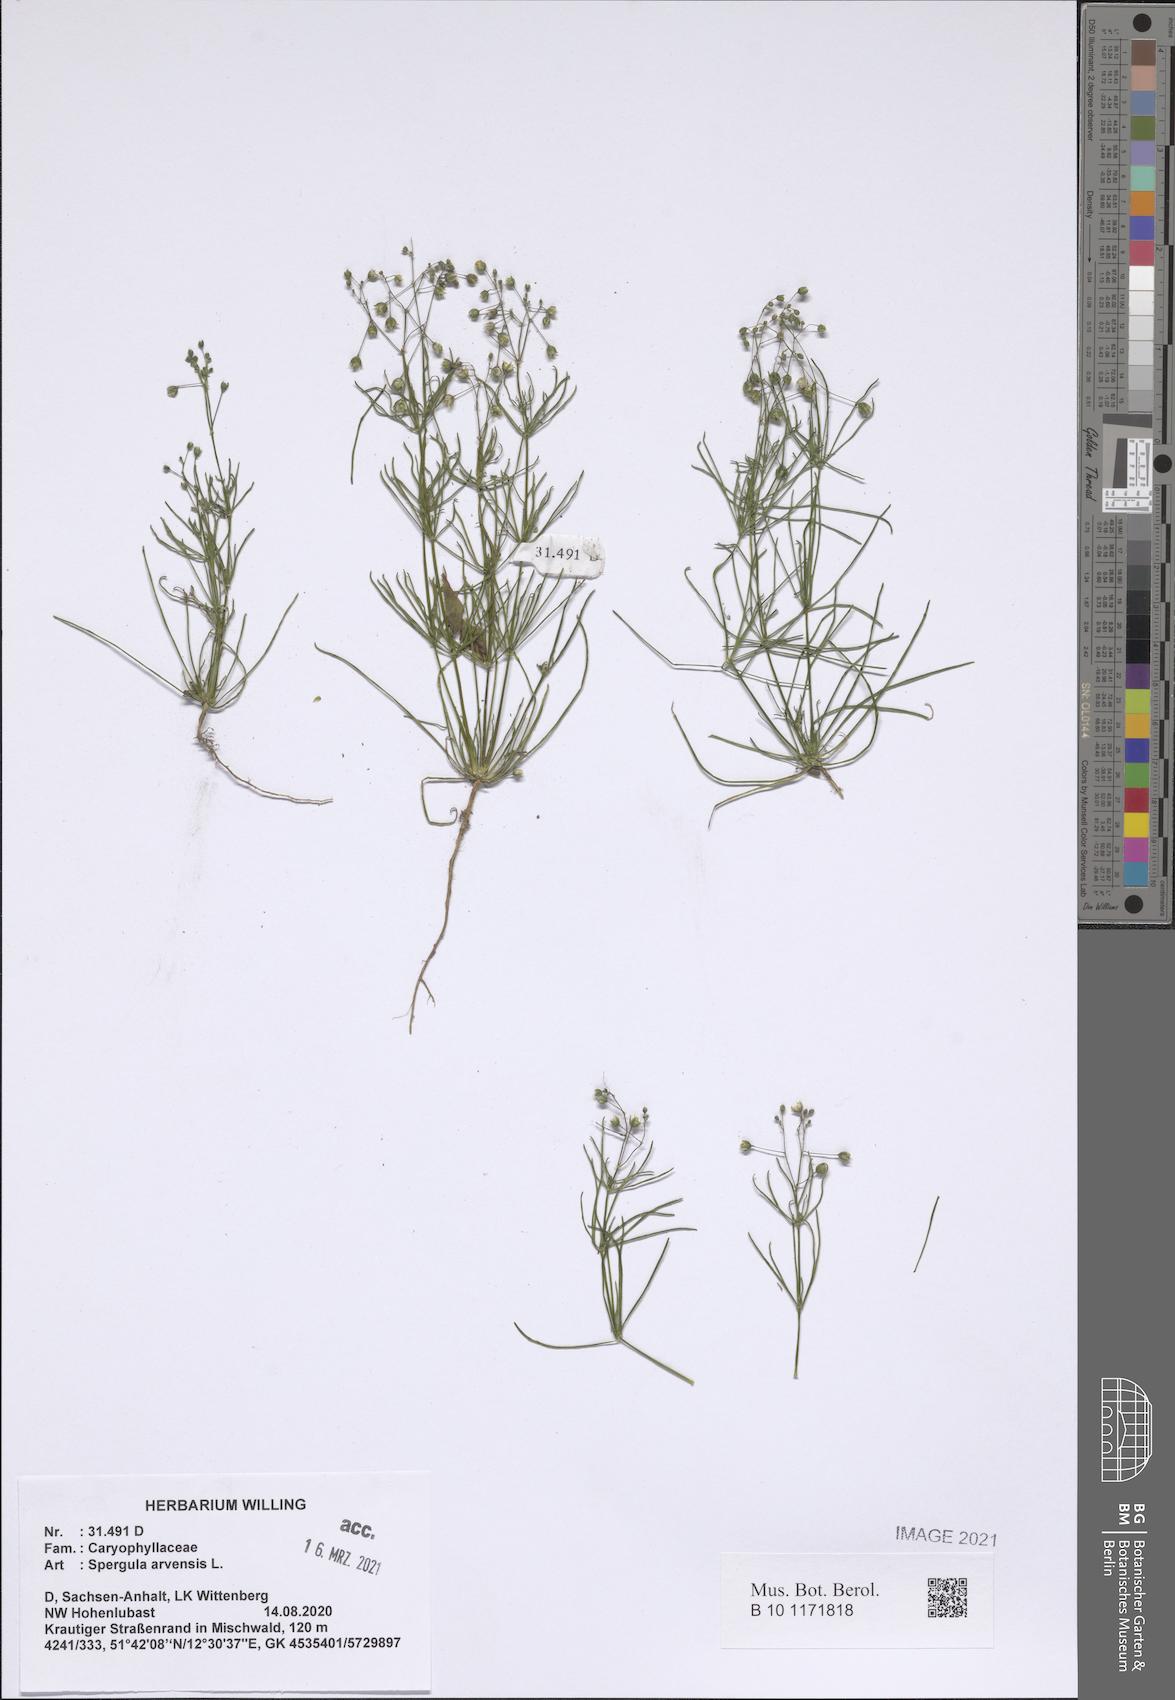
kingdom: Plantae
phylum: Tracheophyta
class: Magnoliopsida
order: Caryophyllales
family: Caryophyllaceae
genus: Spergula
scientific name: Spergula arvensis
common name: Corn spurrey
